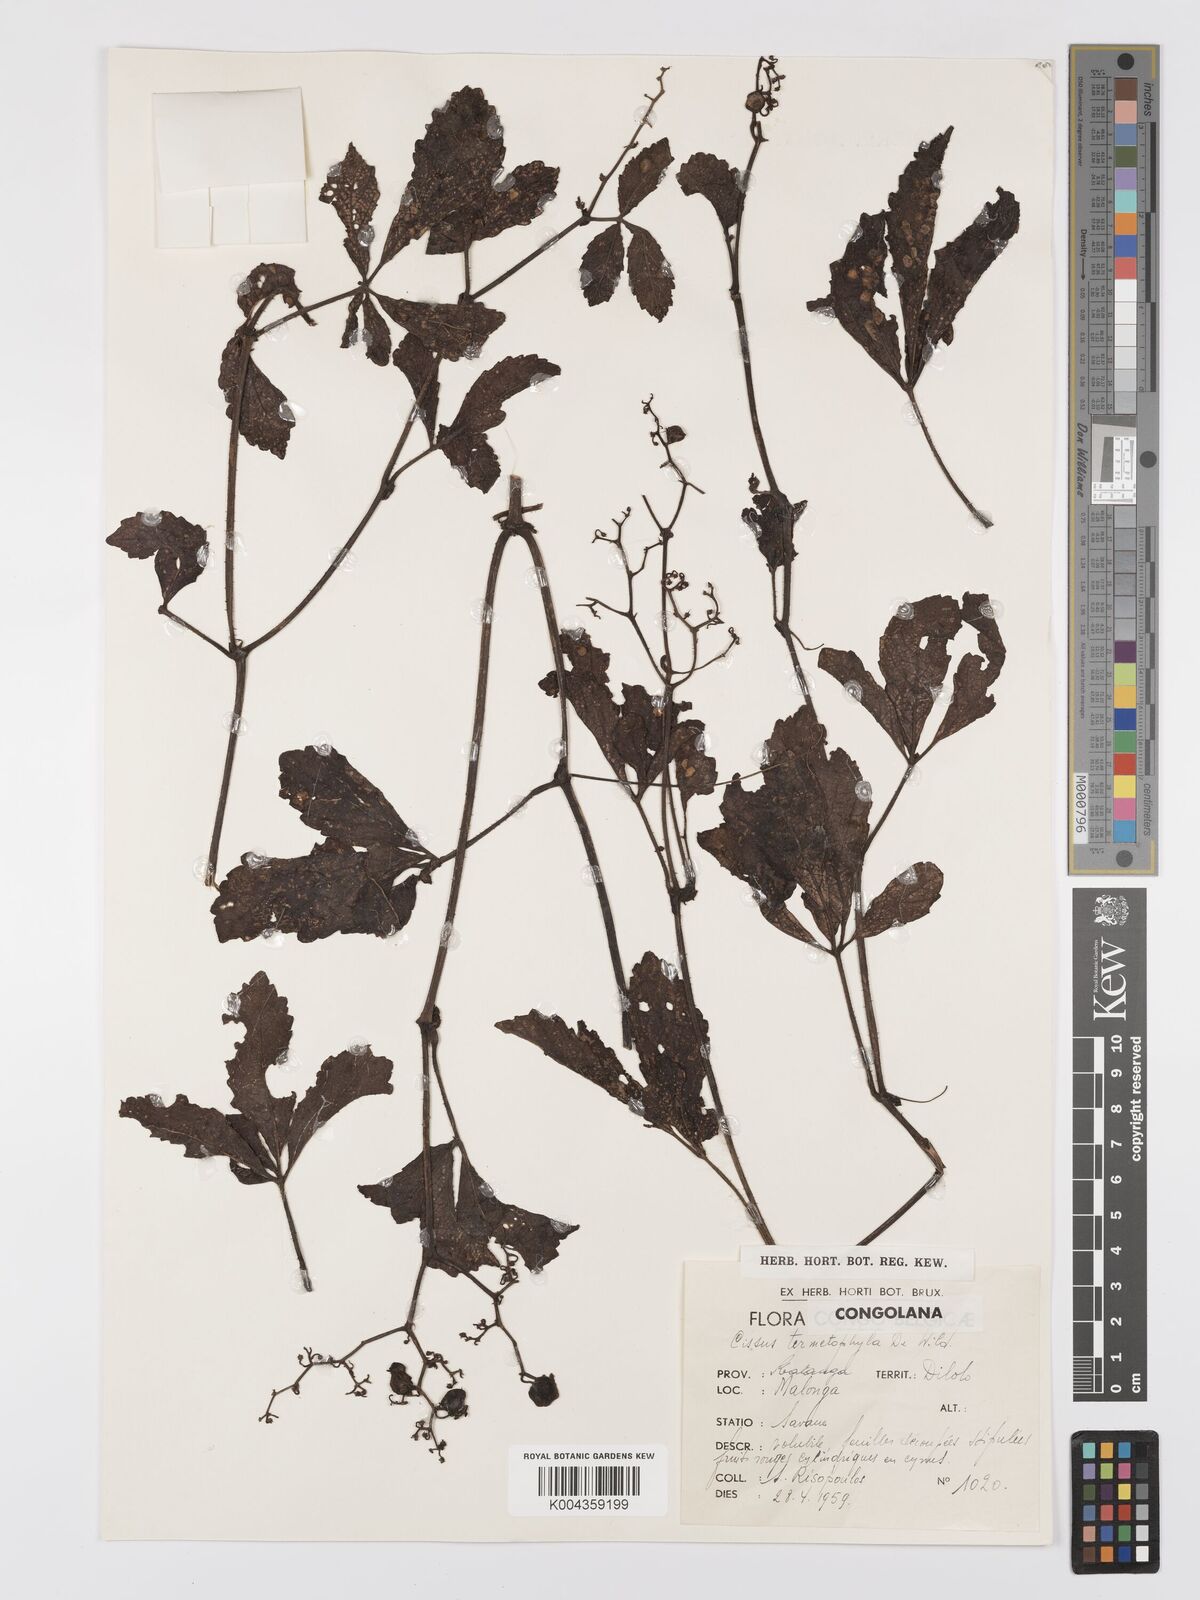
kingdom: Plantae
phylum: Tracheophyta
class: Magnoliopsida
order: Vitales
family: Vitaceae
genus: Cyphostemma
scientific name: Cyphostemma mildbraedii
